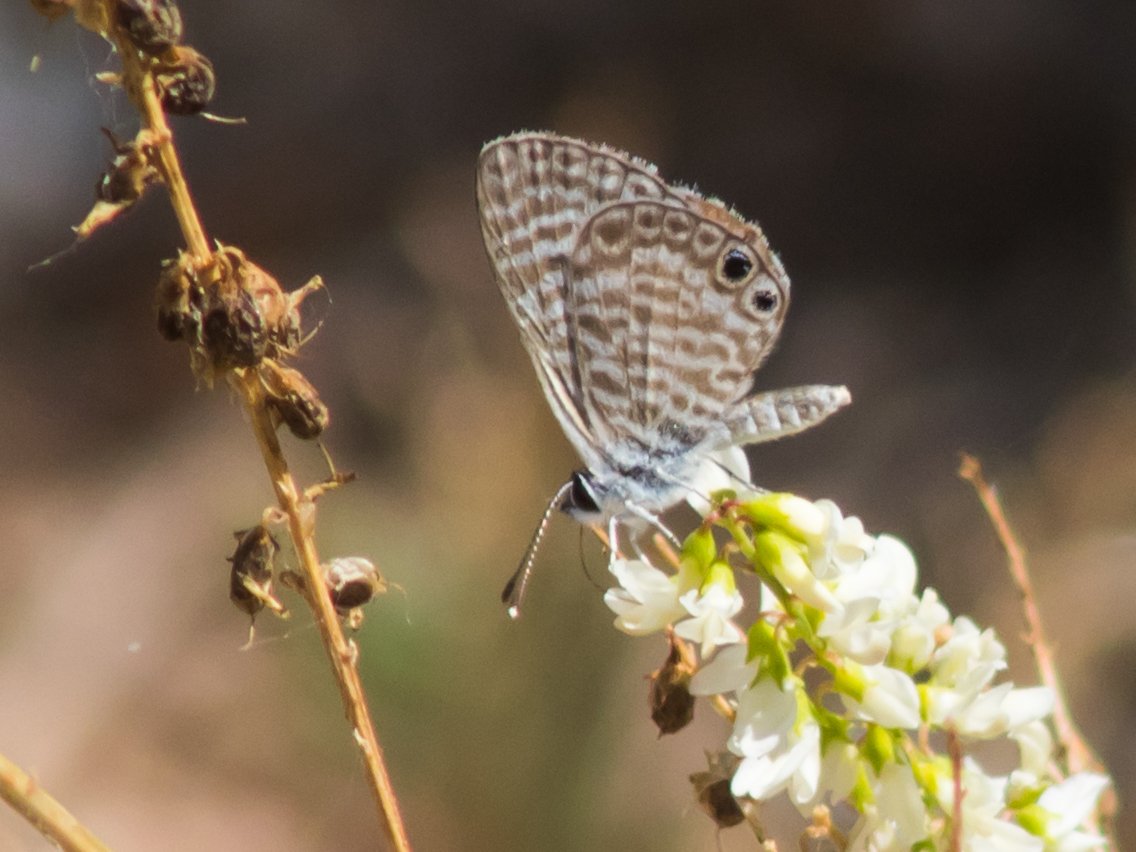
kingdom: Animalia
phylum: Arthropoda
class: Insecta
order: Lepidoptera
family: Lycaenidae
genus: Leptotes
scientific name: Leptotes marina
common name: Marine Blue
